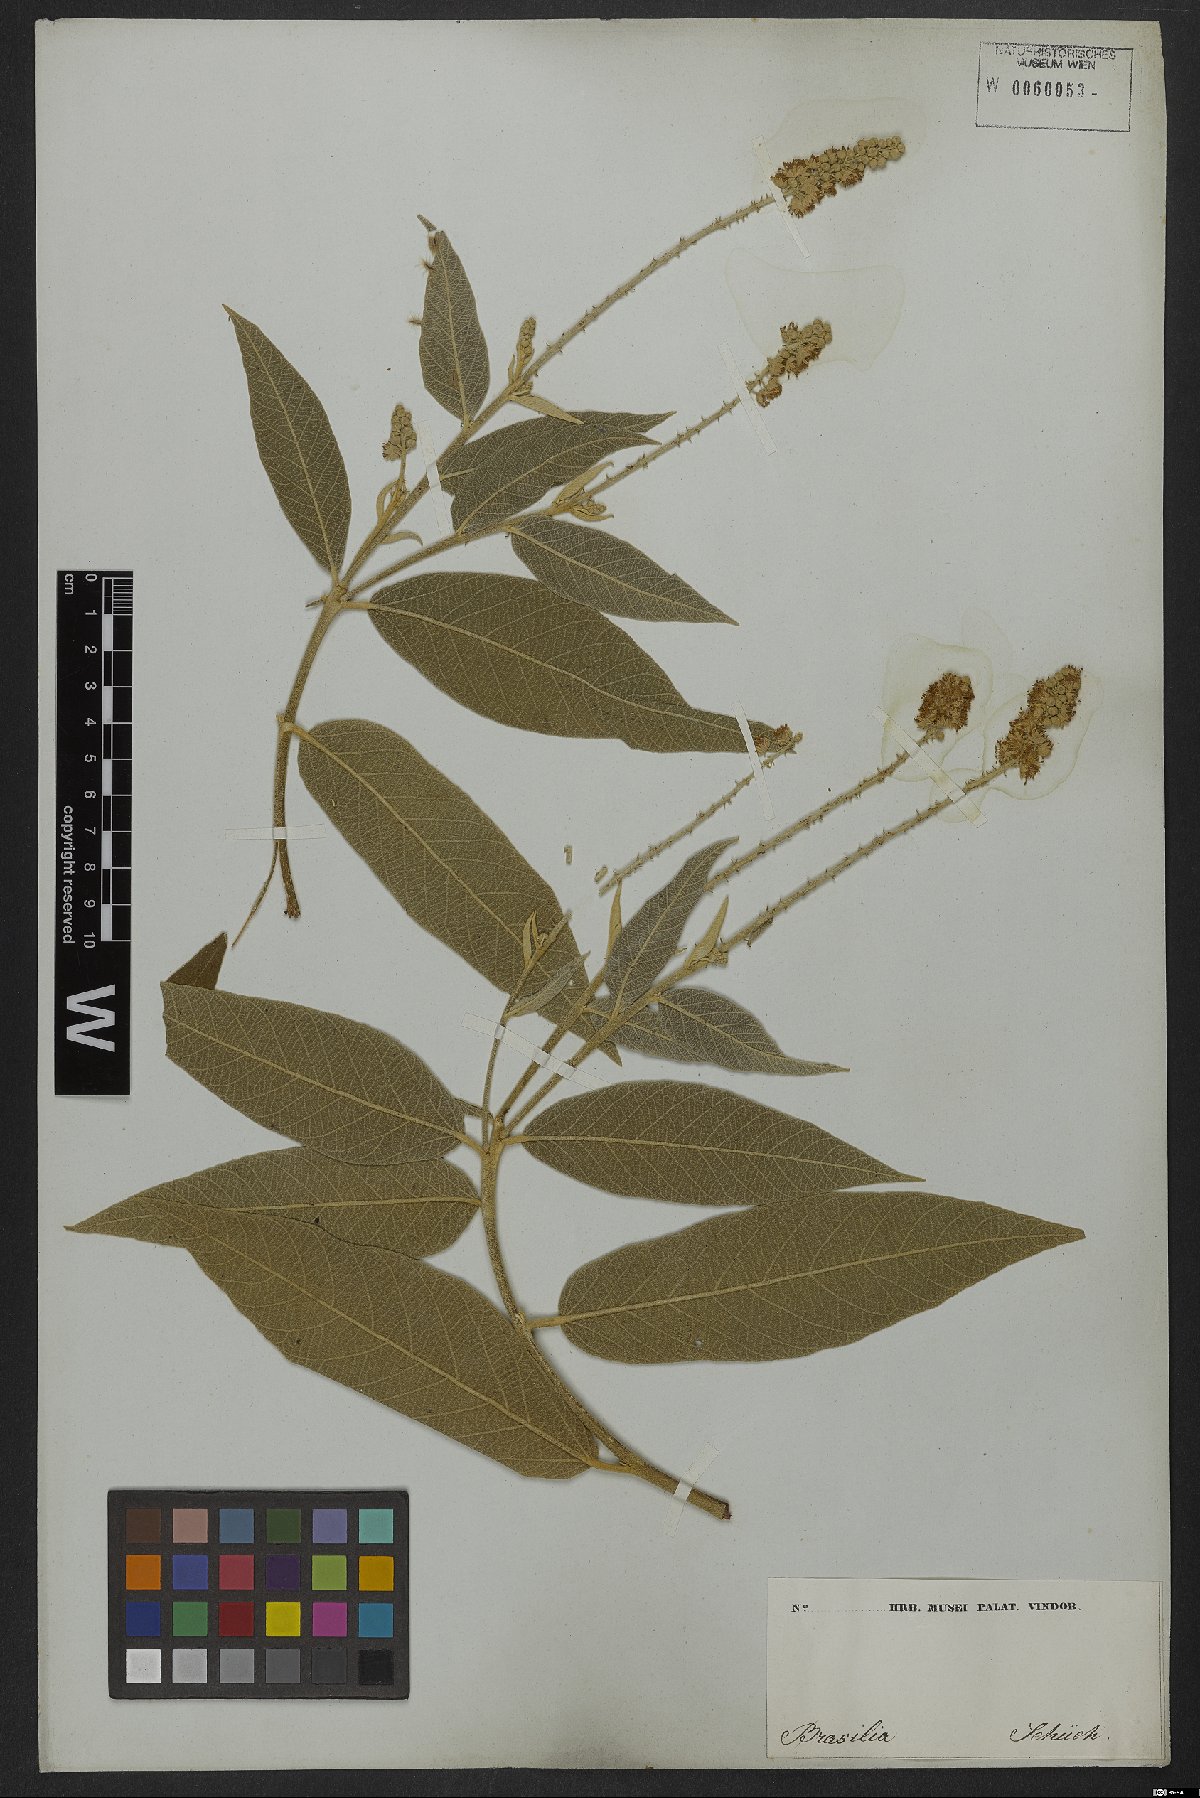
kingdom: Plantae
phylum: Tracheophyta
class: Magnoliopsida
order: Malpighiales
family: Euphorbiaceae
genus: Croton
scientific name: Croton compressus
